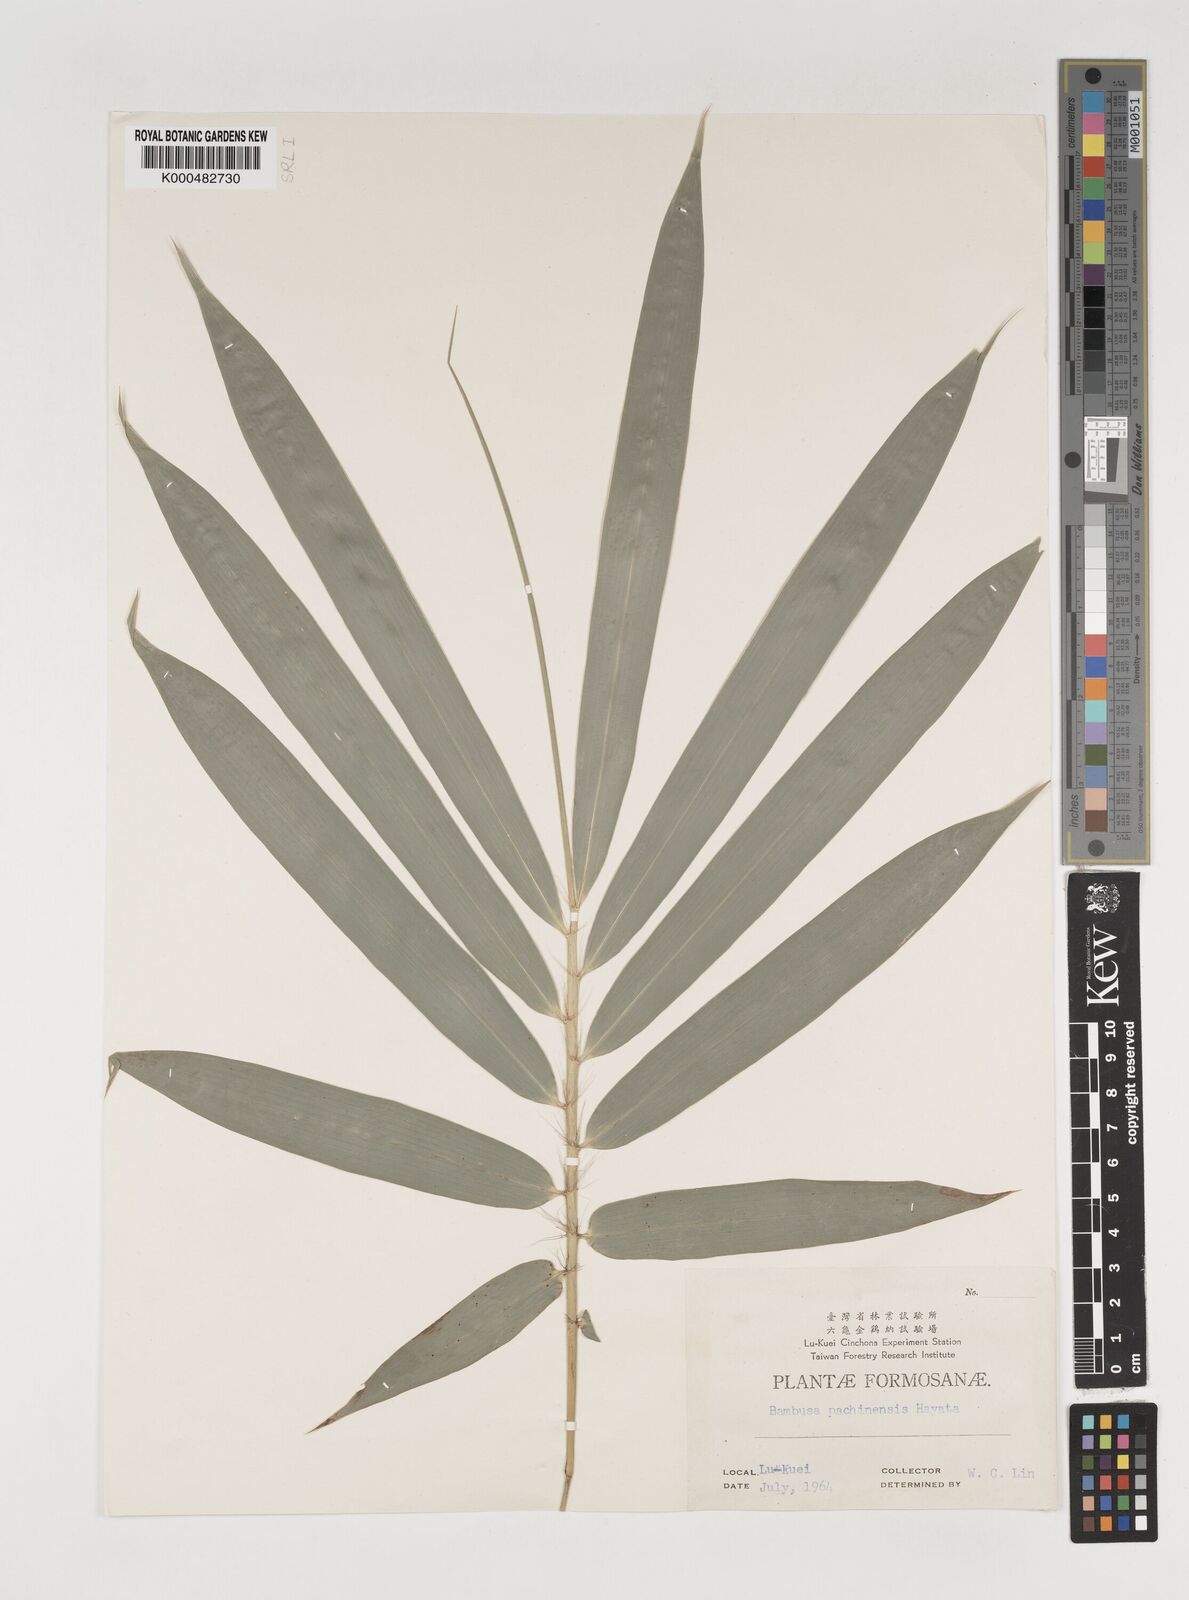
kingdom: Plantae
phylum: Tracheophyta
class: Liliopsida
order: Poales
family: Poaceae
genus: Bambusa
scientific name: Bambusa pachinensis
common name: Pachi bamboo
